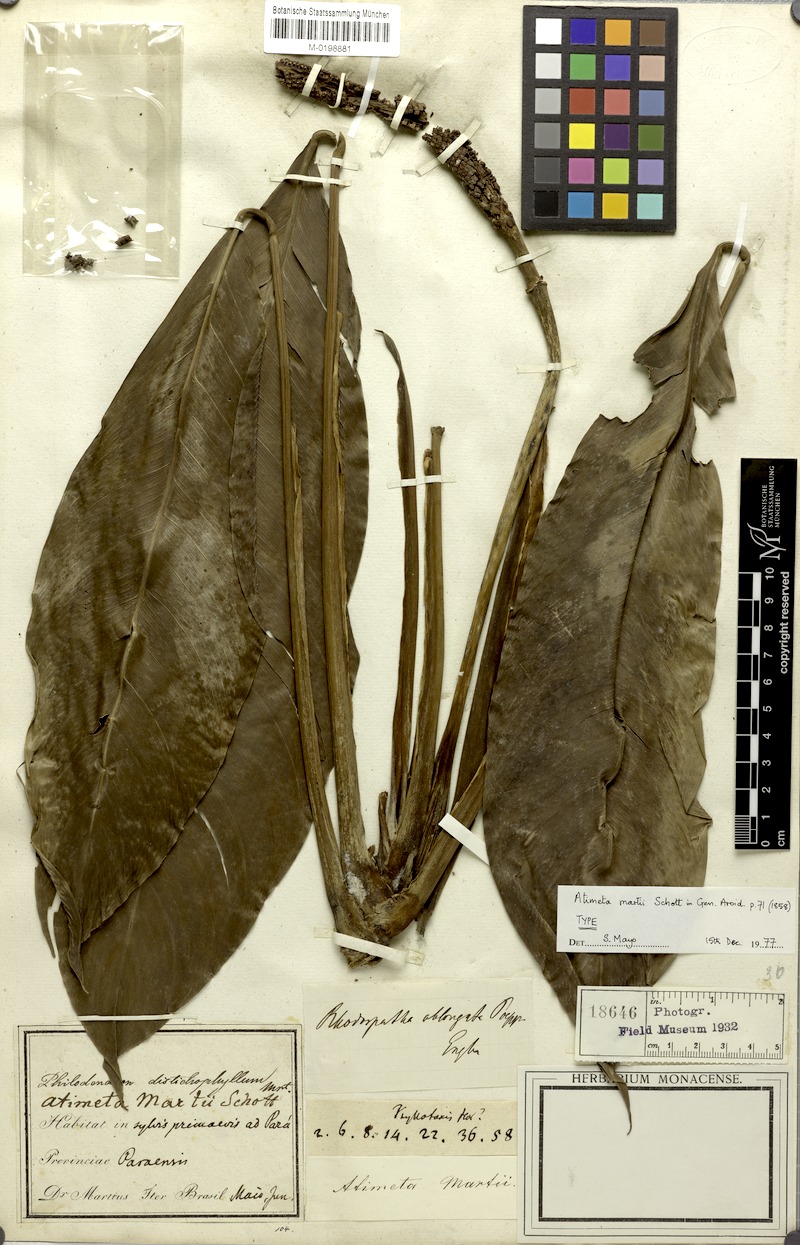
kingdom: Plantae
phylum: Tracheophyta
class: Liliopsida
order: Alismatales
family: Araceae
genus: Rhodospatha
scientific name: Rhodospatha oblongata
